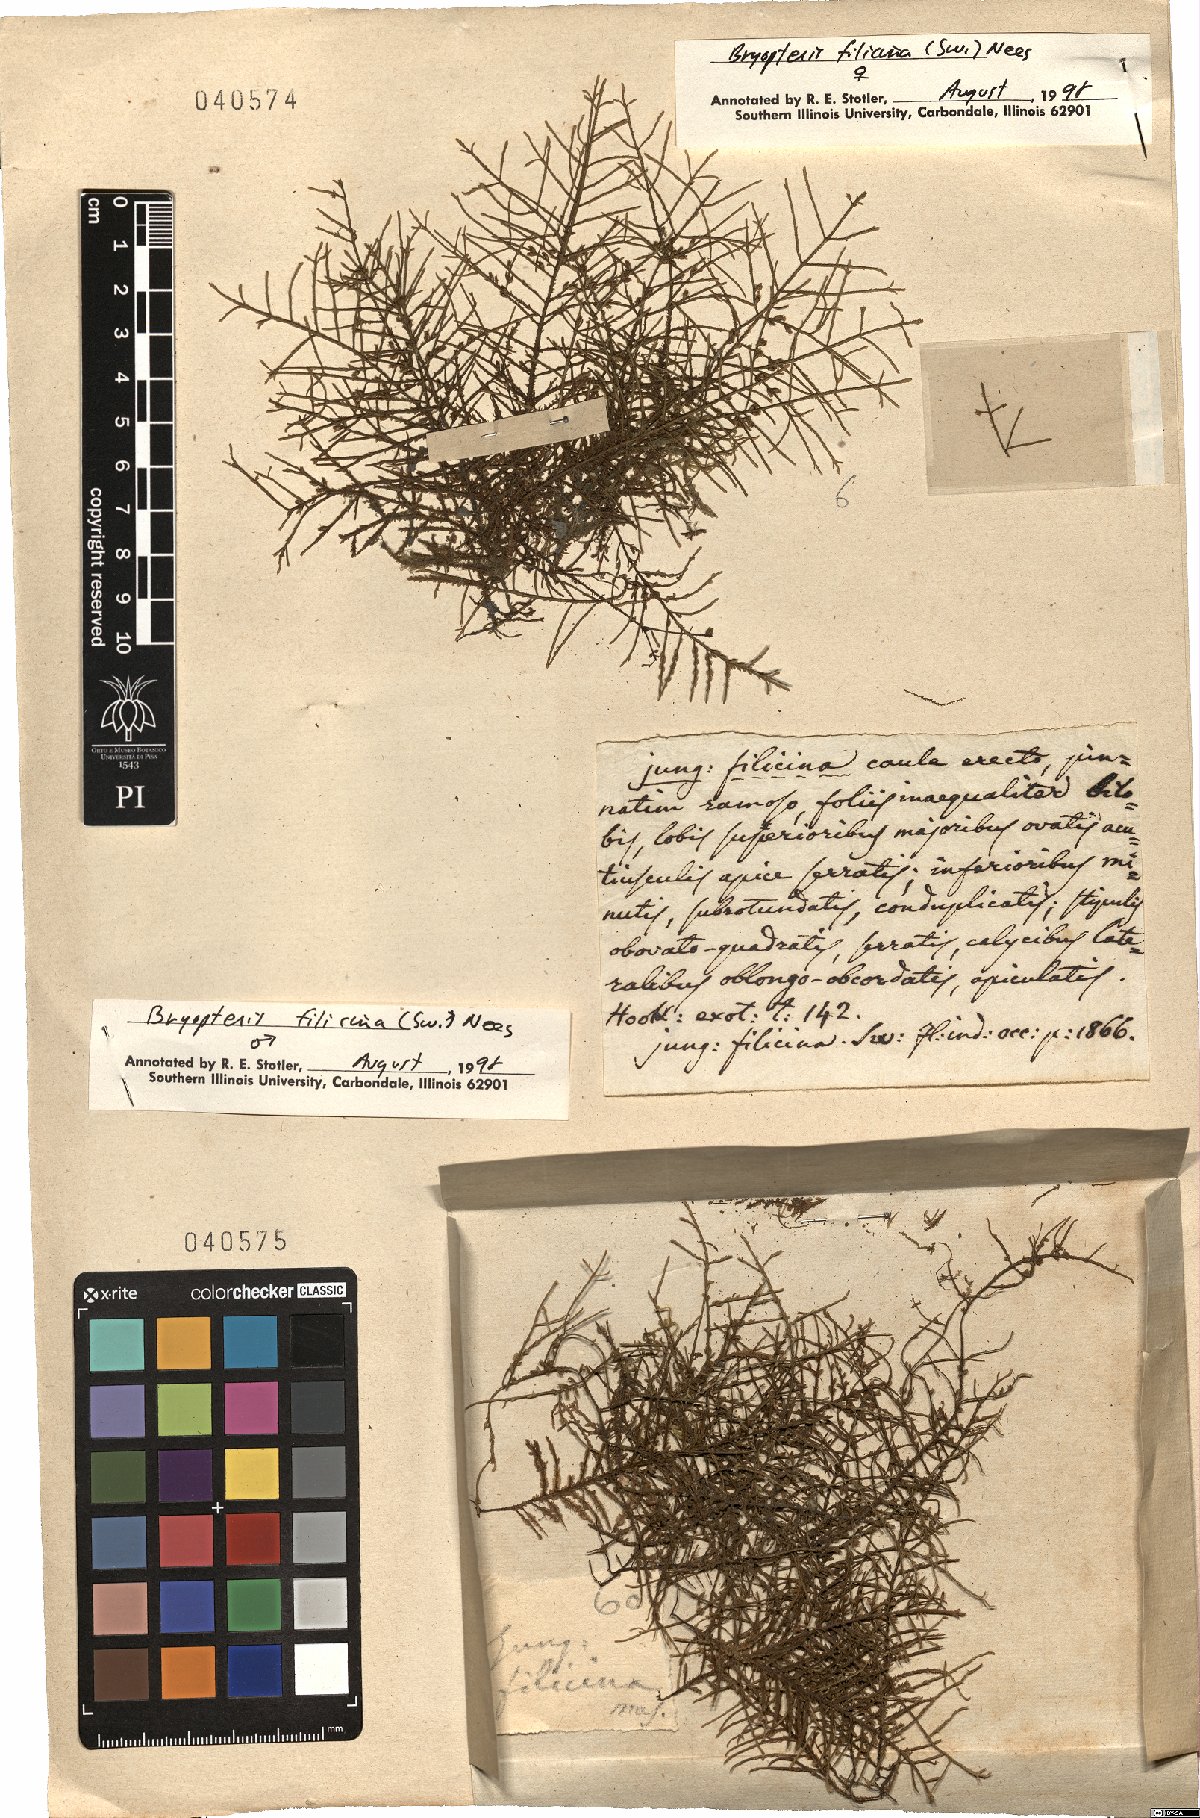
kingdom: Plantae
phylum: Marchantiophyta
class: Jungermanniopsida
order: Porellales
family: Lejeuneaceae
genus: Bryopteris
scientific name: Bryopteris filicina
